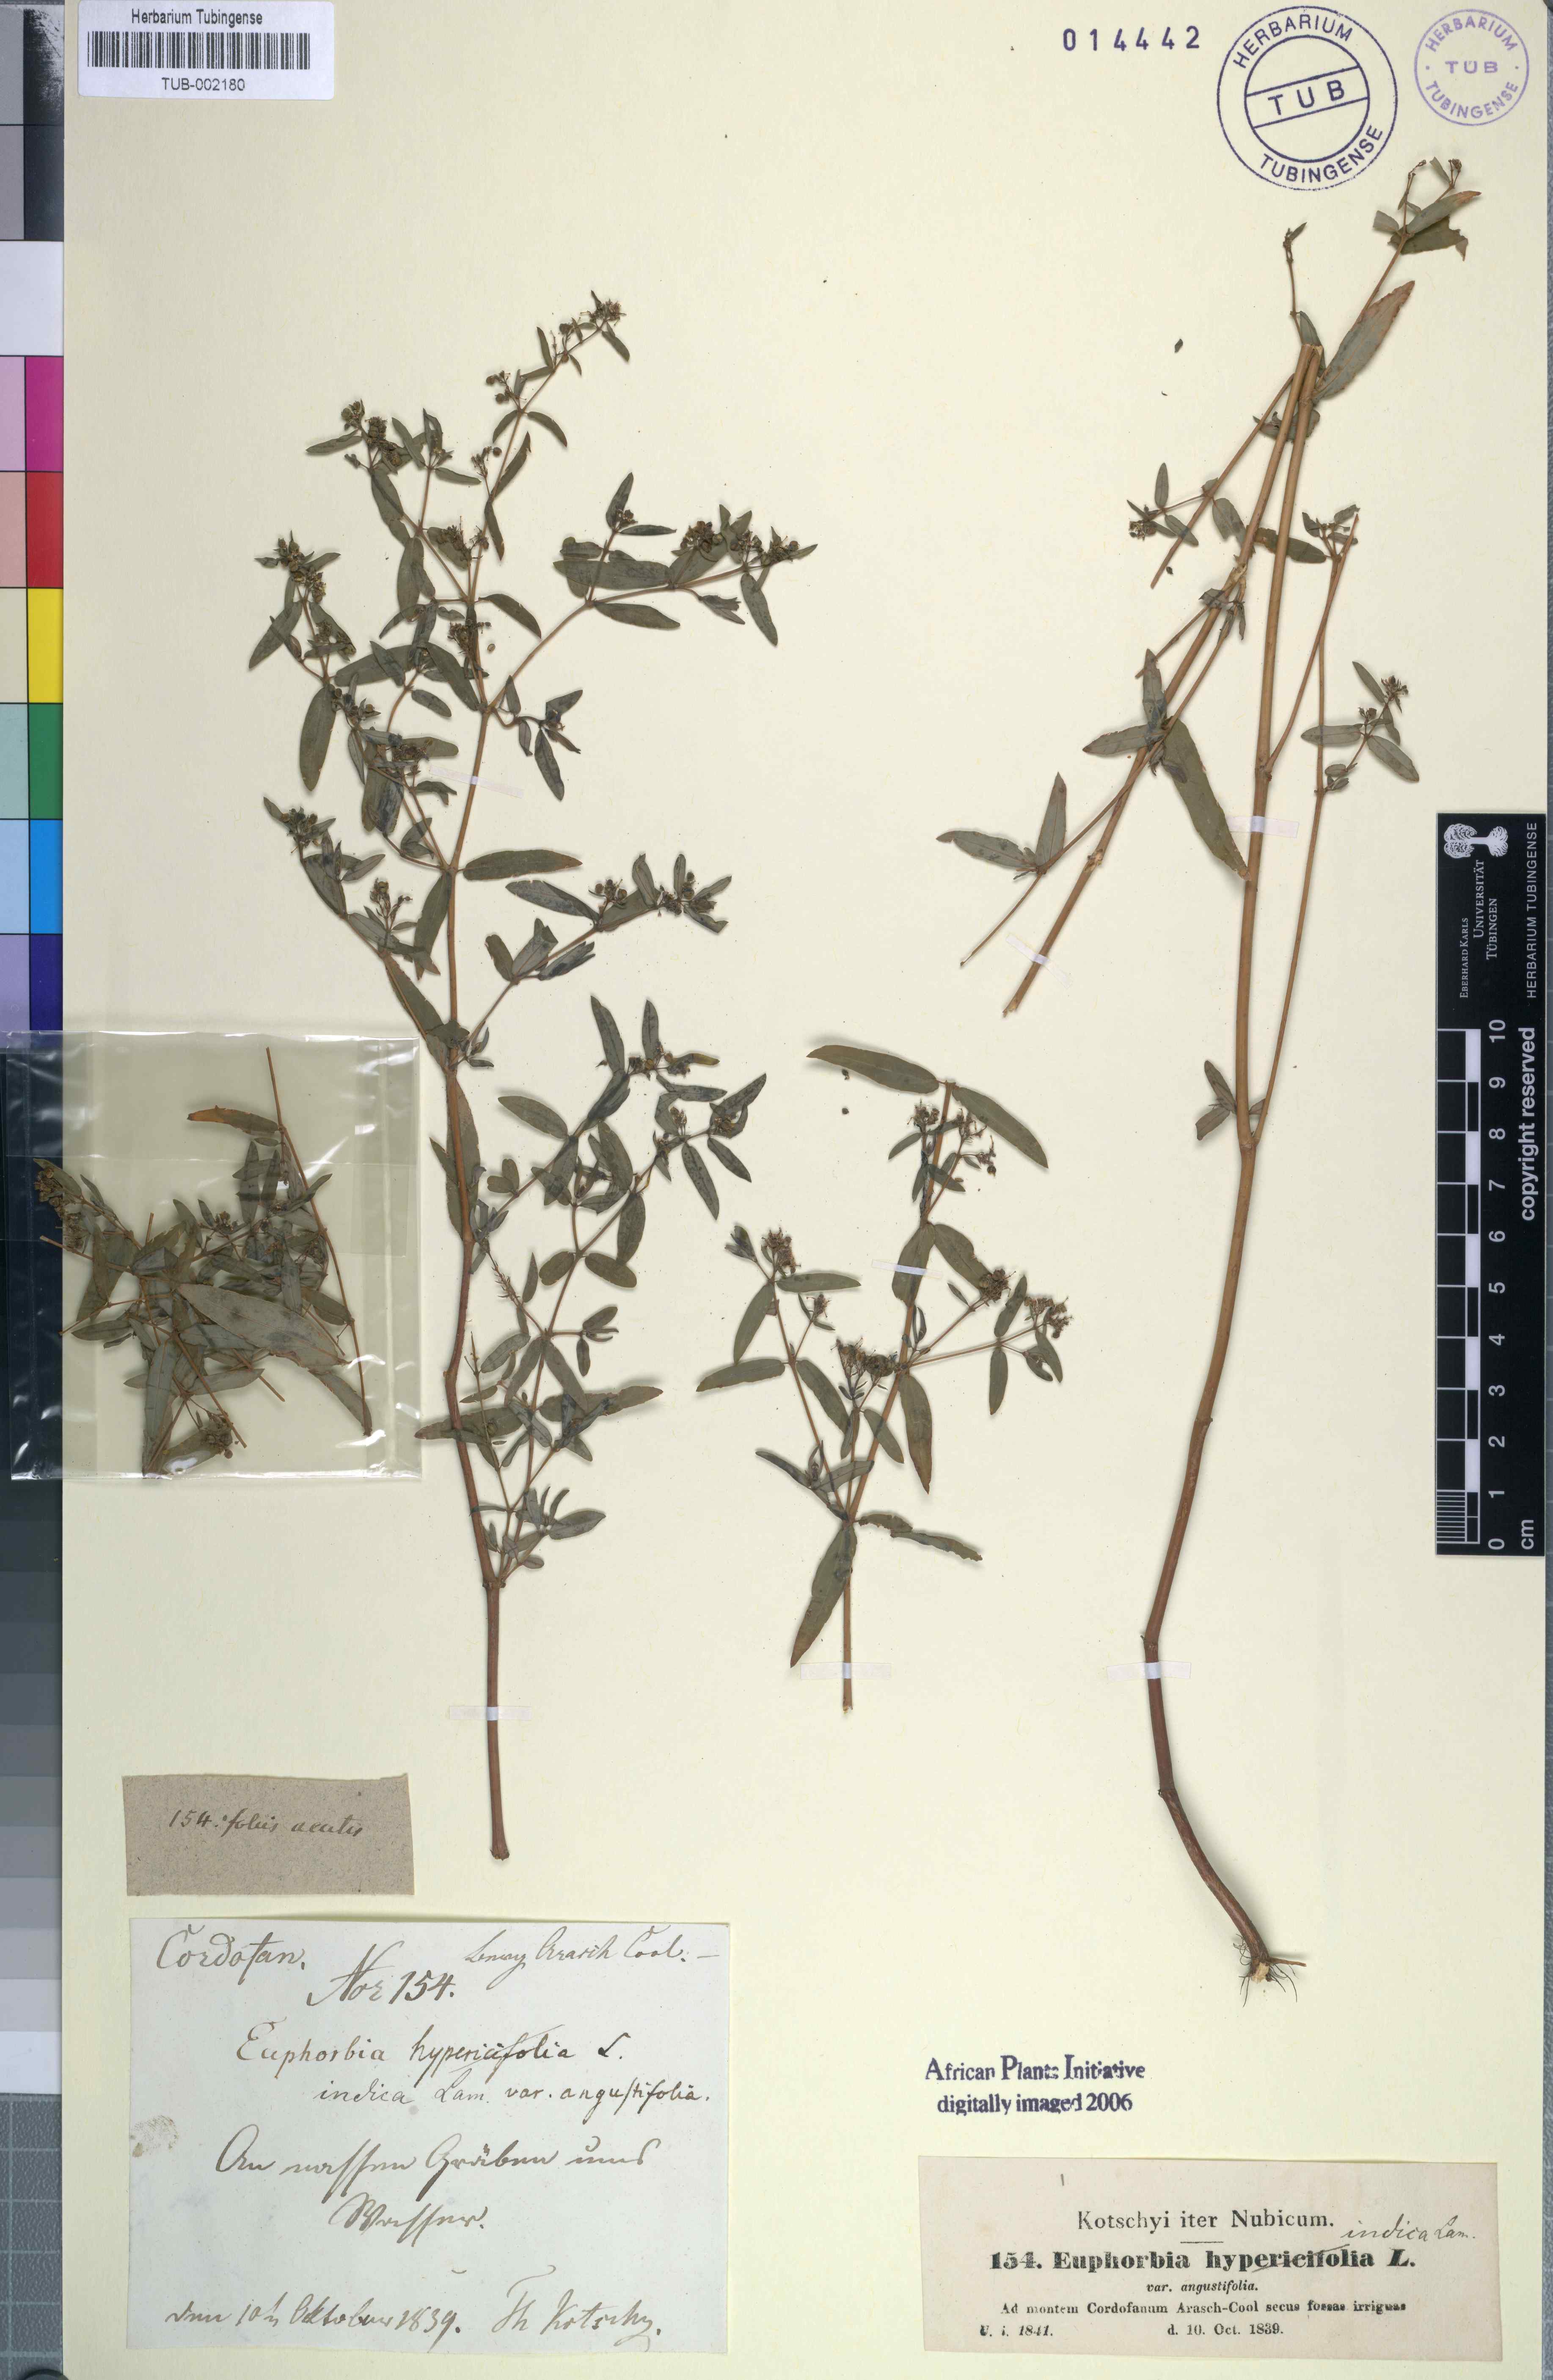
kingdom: Plantae
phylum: Tracheophyta
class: Magnoliopsida
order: Malpighiales
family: Euphorbiaceae
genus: Euphorbia
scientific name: Euphorbia indica
